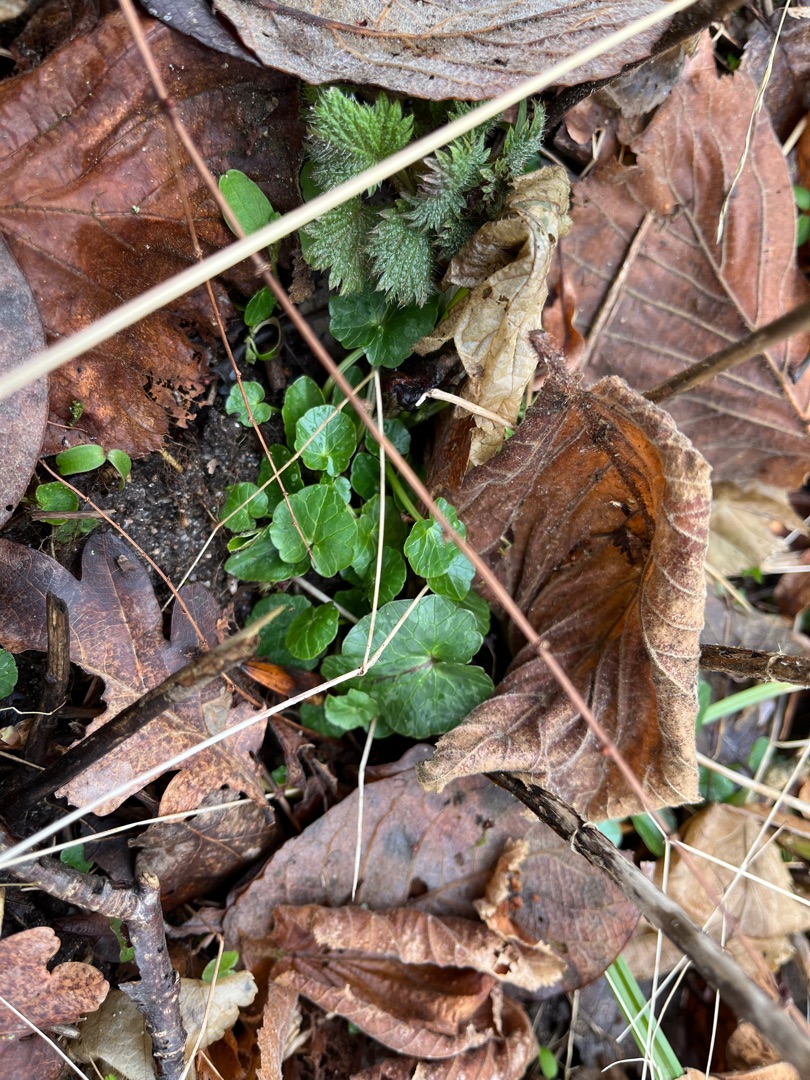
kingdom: Plantae
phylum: Tracheophyta
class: Magnoliopsida
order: Ranunculales
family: Ranunculaceae
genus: Ficaria
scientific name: Ficaria verna
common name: Vorterod
